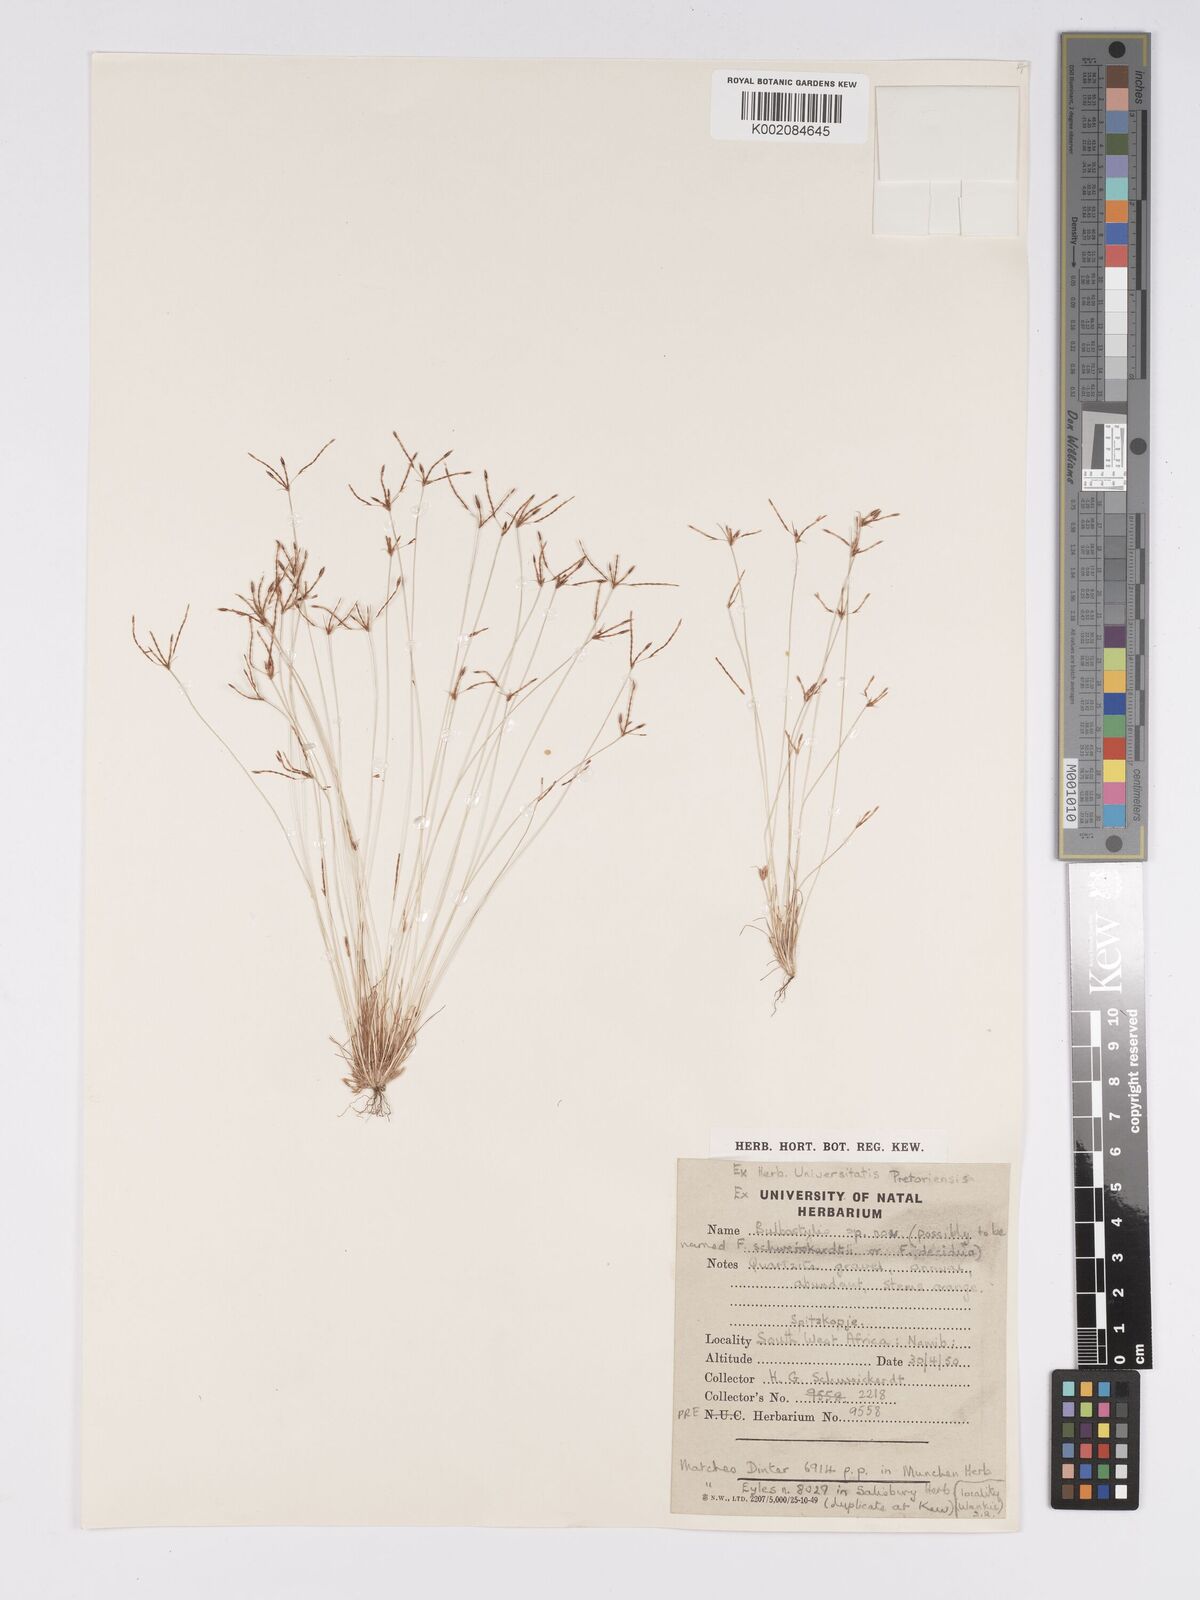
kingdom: Plantae
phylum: Tracheophyta
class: Liliopsida
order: Poales
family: Cyperaceae
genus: Bulbostylis
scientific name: Bulbostylis mucronata
